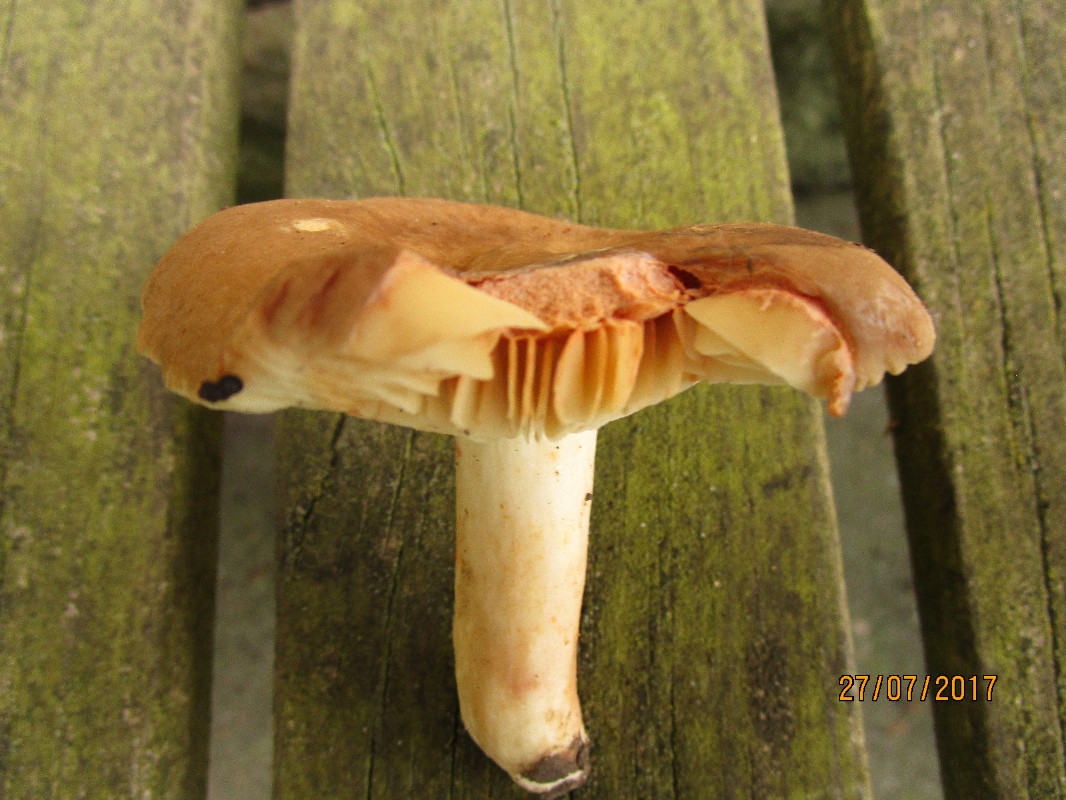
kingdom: Fungi
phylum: Basidiomycota
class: Agaricomycetes
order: Russulales
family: Russulaceae
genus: Lactarius
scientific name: Lactarius
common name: mælkehat
